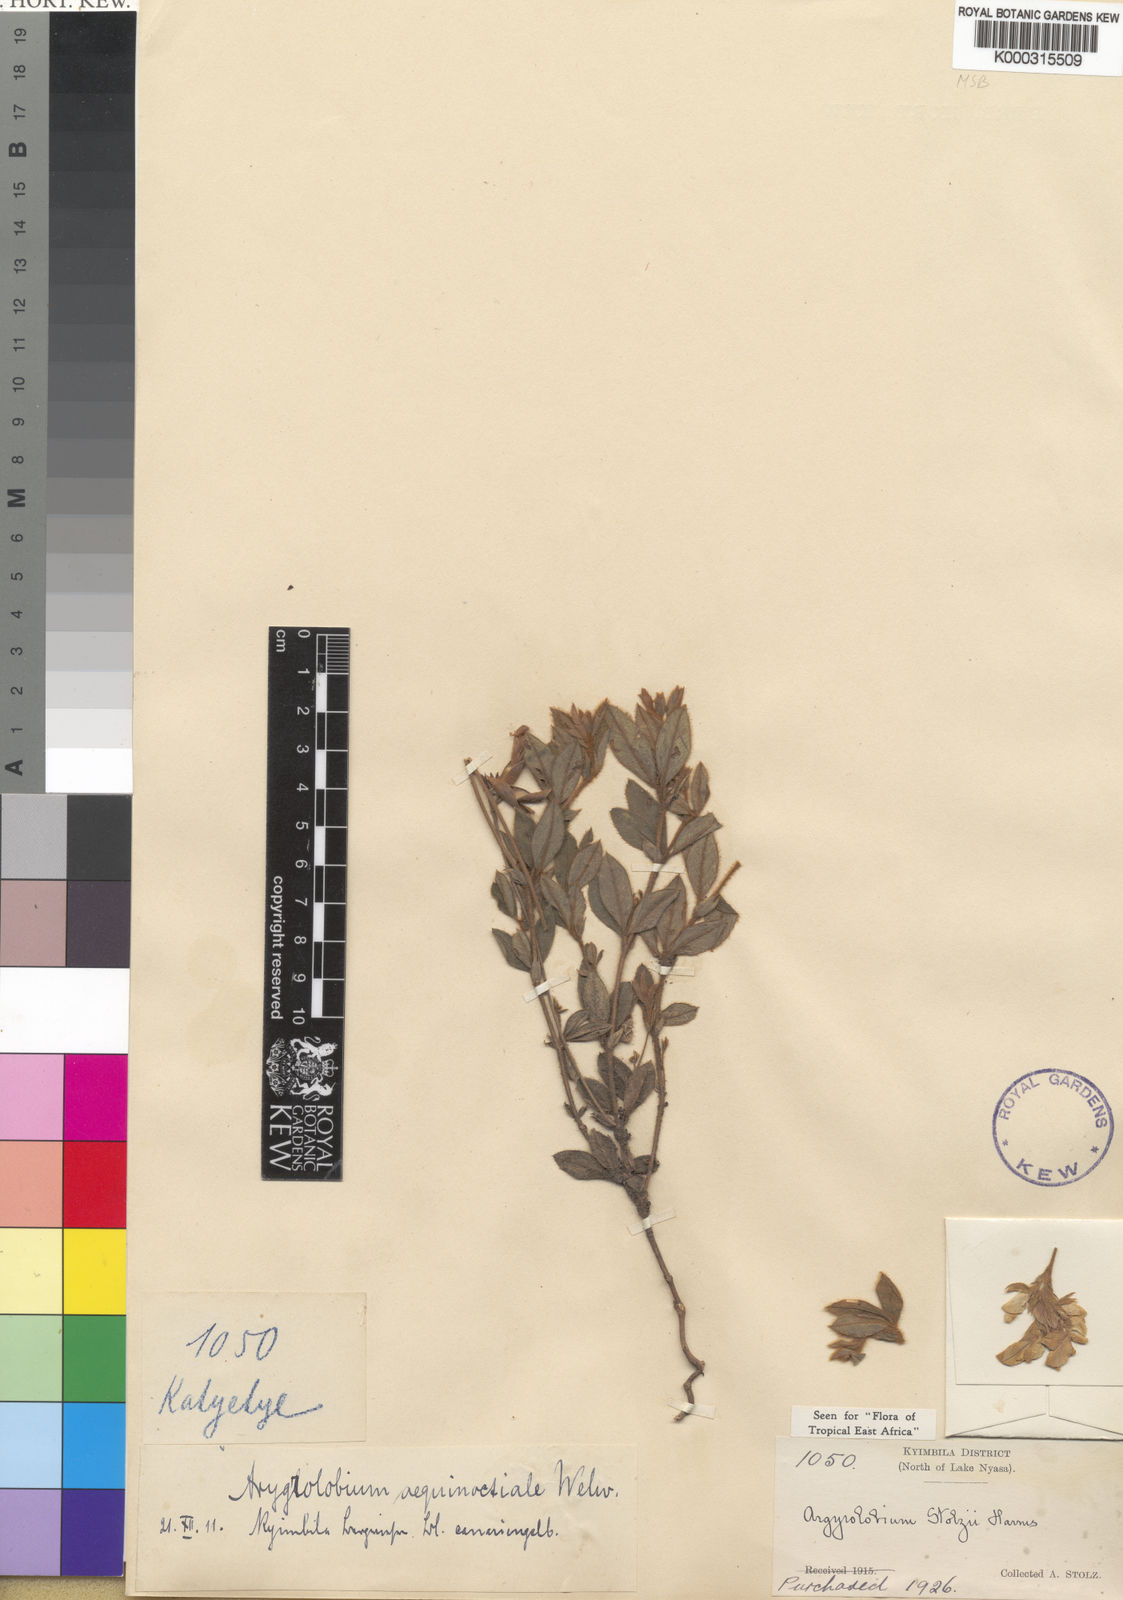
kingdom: Plantae
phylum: Tracheophyta
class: Magnoliopsida
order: Fabales
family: Fabaceae
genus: Argyrolobium
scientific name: Argyrolobium stolzii
